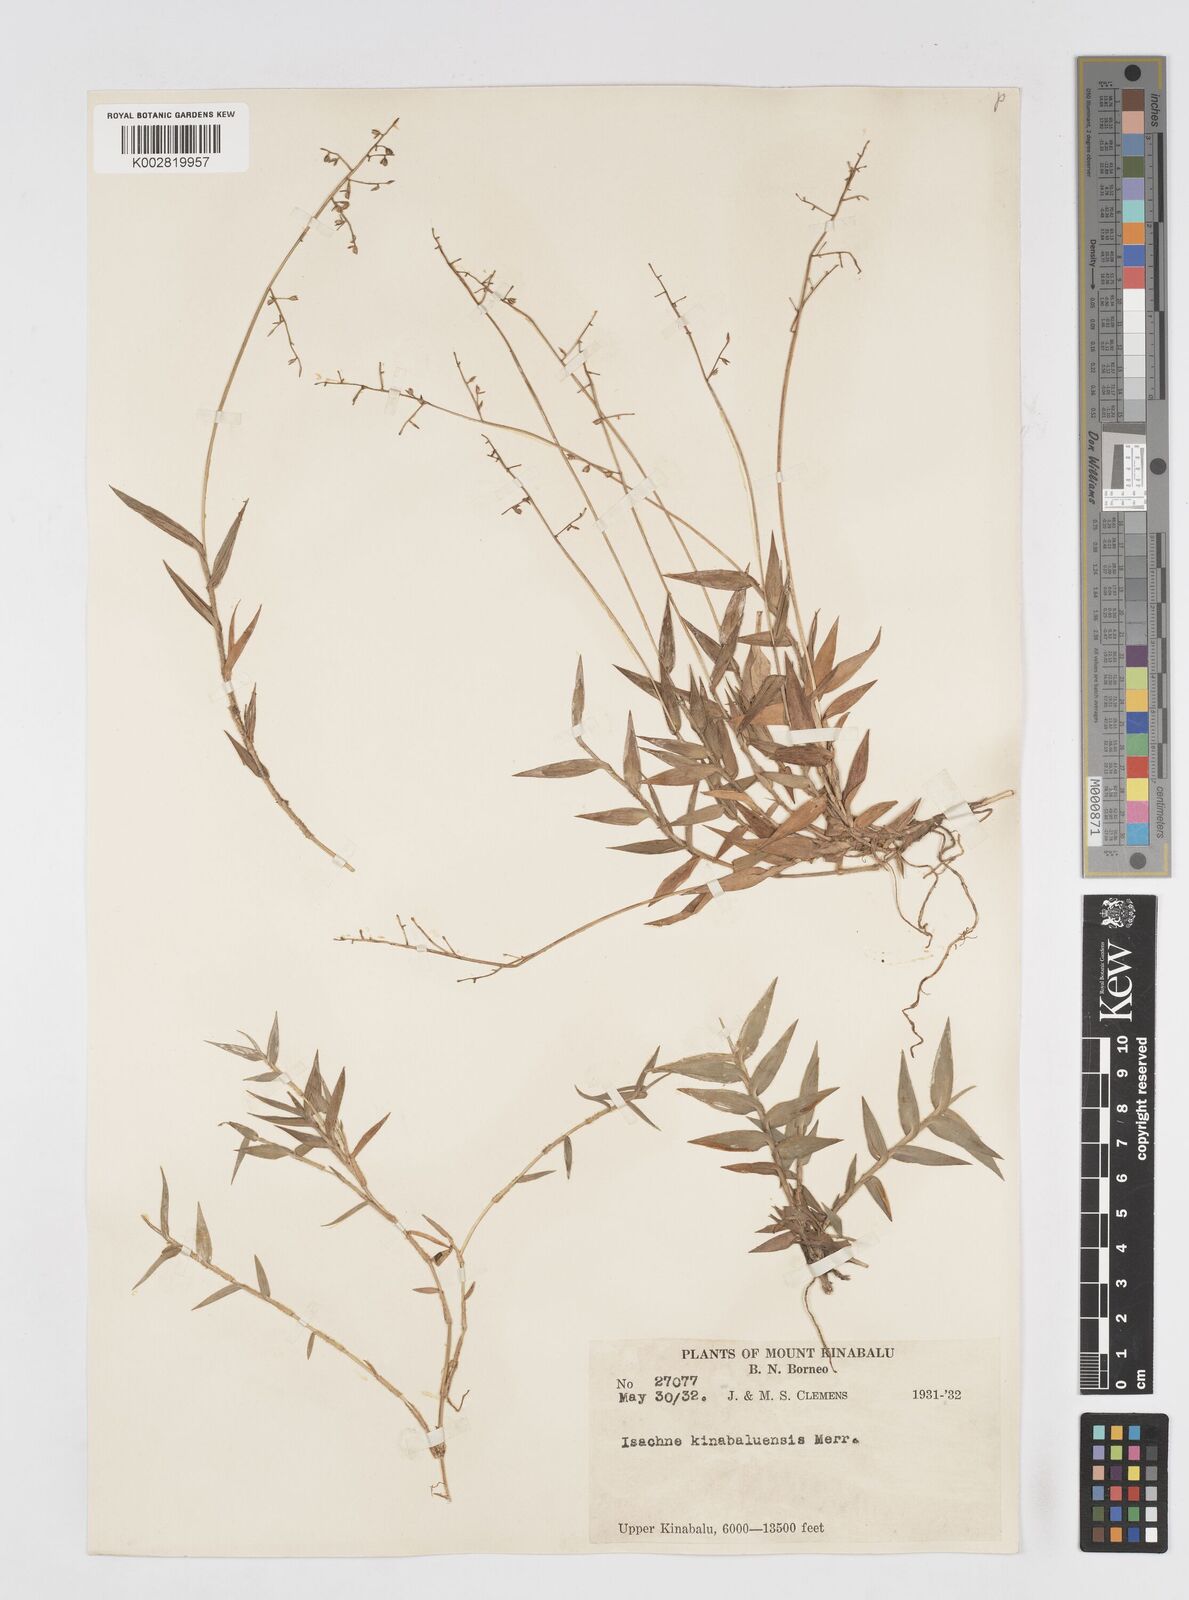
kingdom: Plantae
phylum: Tracheophyta
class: Liliopsida
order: Poales
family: Poaceae
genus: Isachne
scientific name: Isachne clementis
